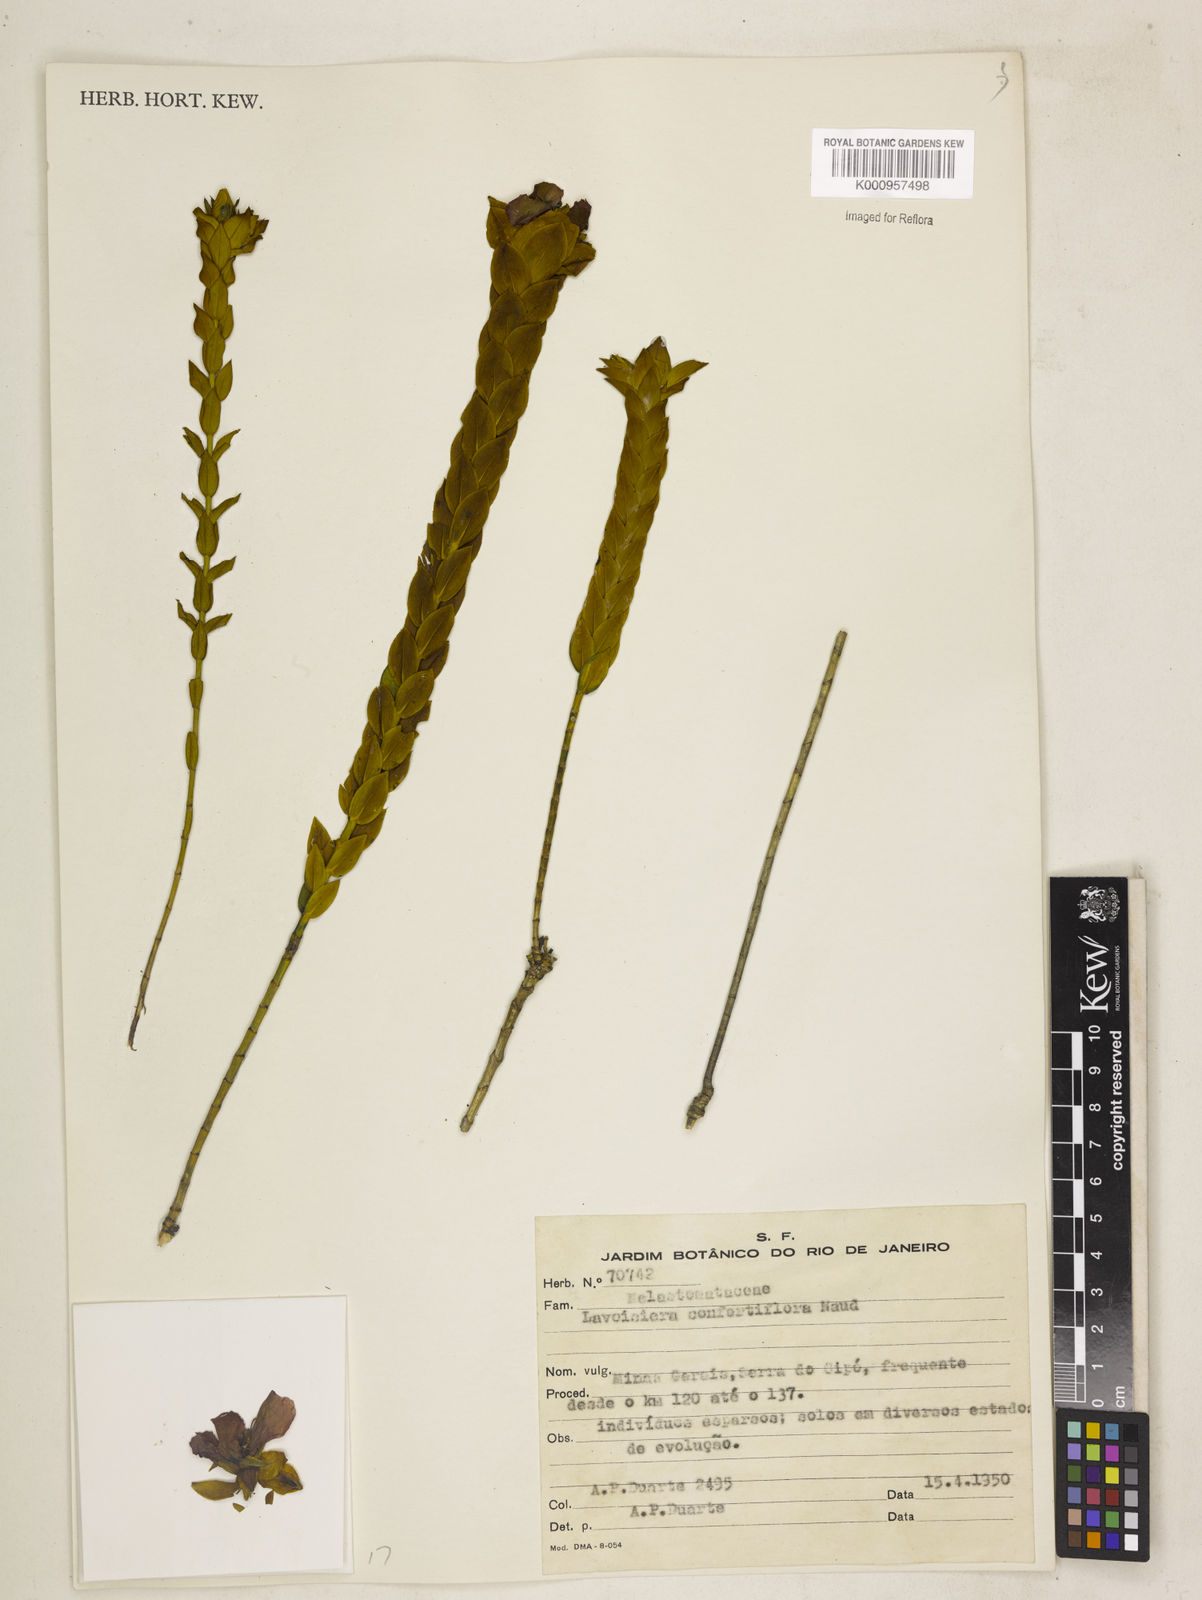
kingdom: Plantae
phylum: Tracheophyta
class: Magnoliopsida
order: Myrtales
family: Melastomataceae
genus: Microlicia
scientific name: Microlicia congestiflora
